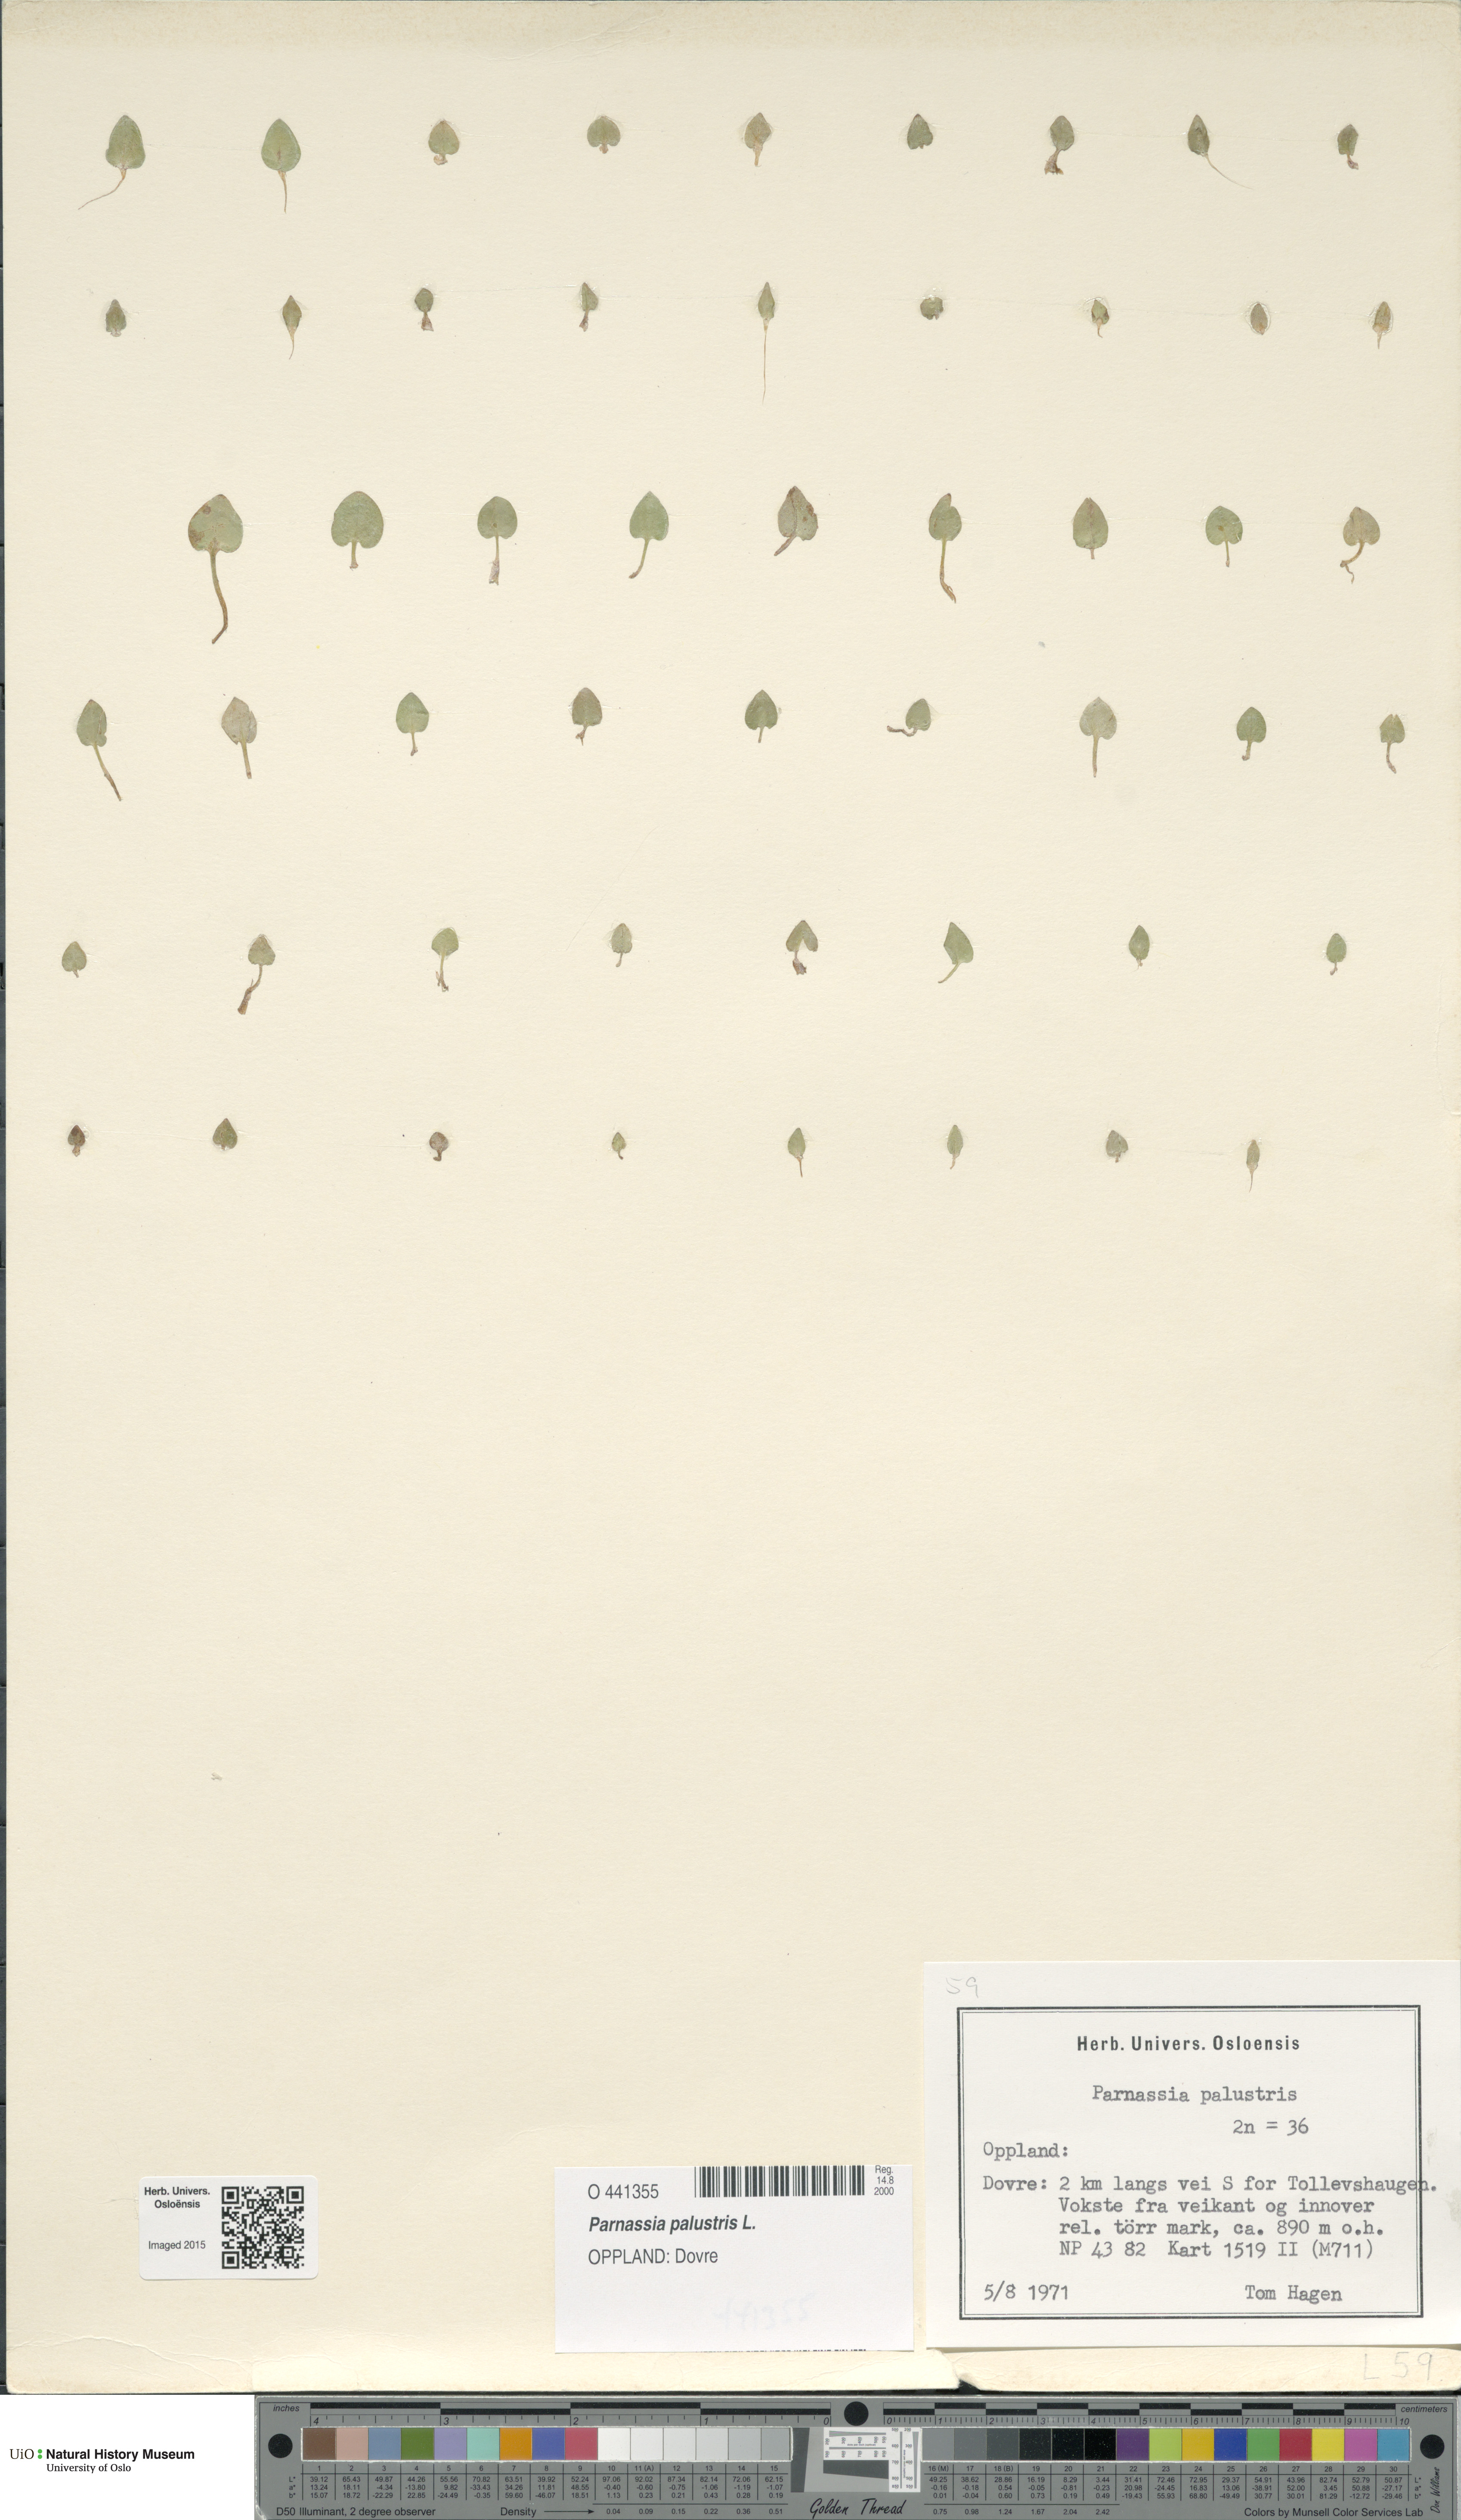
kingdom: Plantae
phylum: Tracheophyta
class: Magnoliopsida
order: Celastrales
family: Parnassiaceae
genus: Parnassia
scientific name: Parnassia palustris
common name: Grass-of-parnassus
